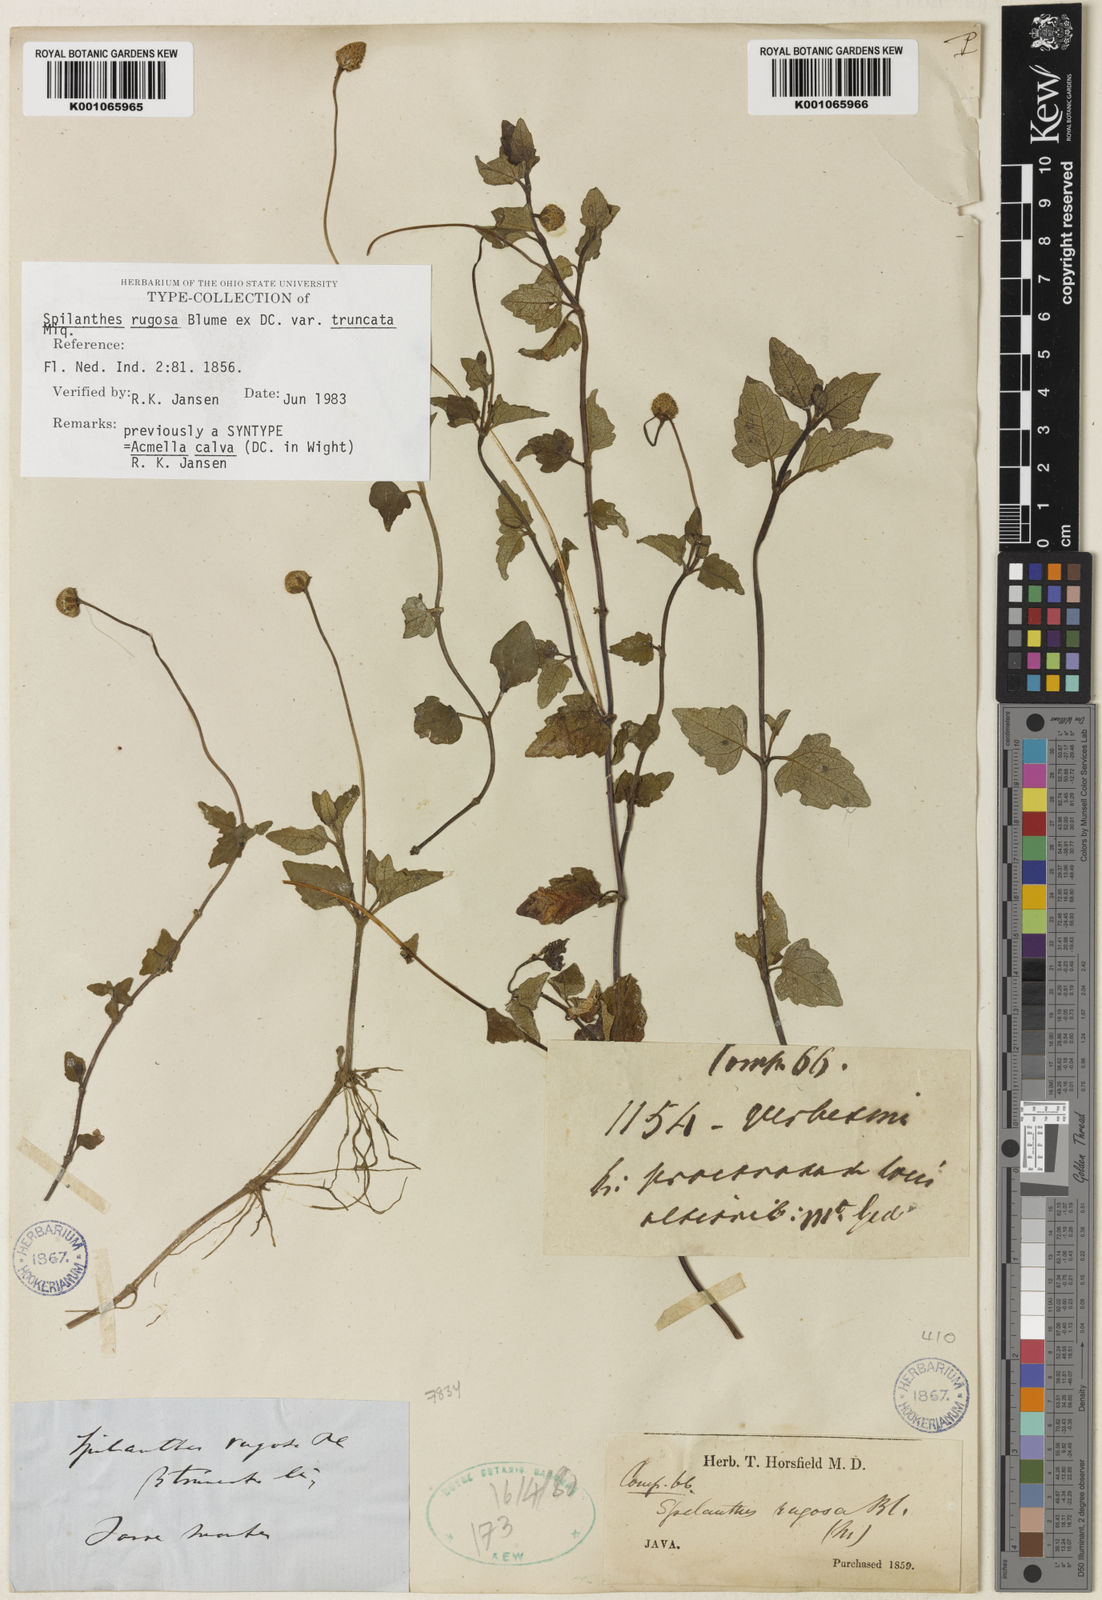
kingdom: Plantae
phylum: Tracheophyta
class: Magnoliopsida
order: Asterales
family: Asteraceae
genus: Acmella
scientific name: Acmella calva
